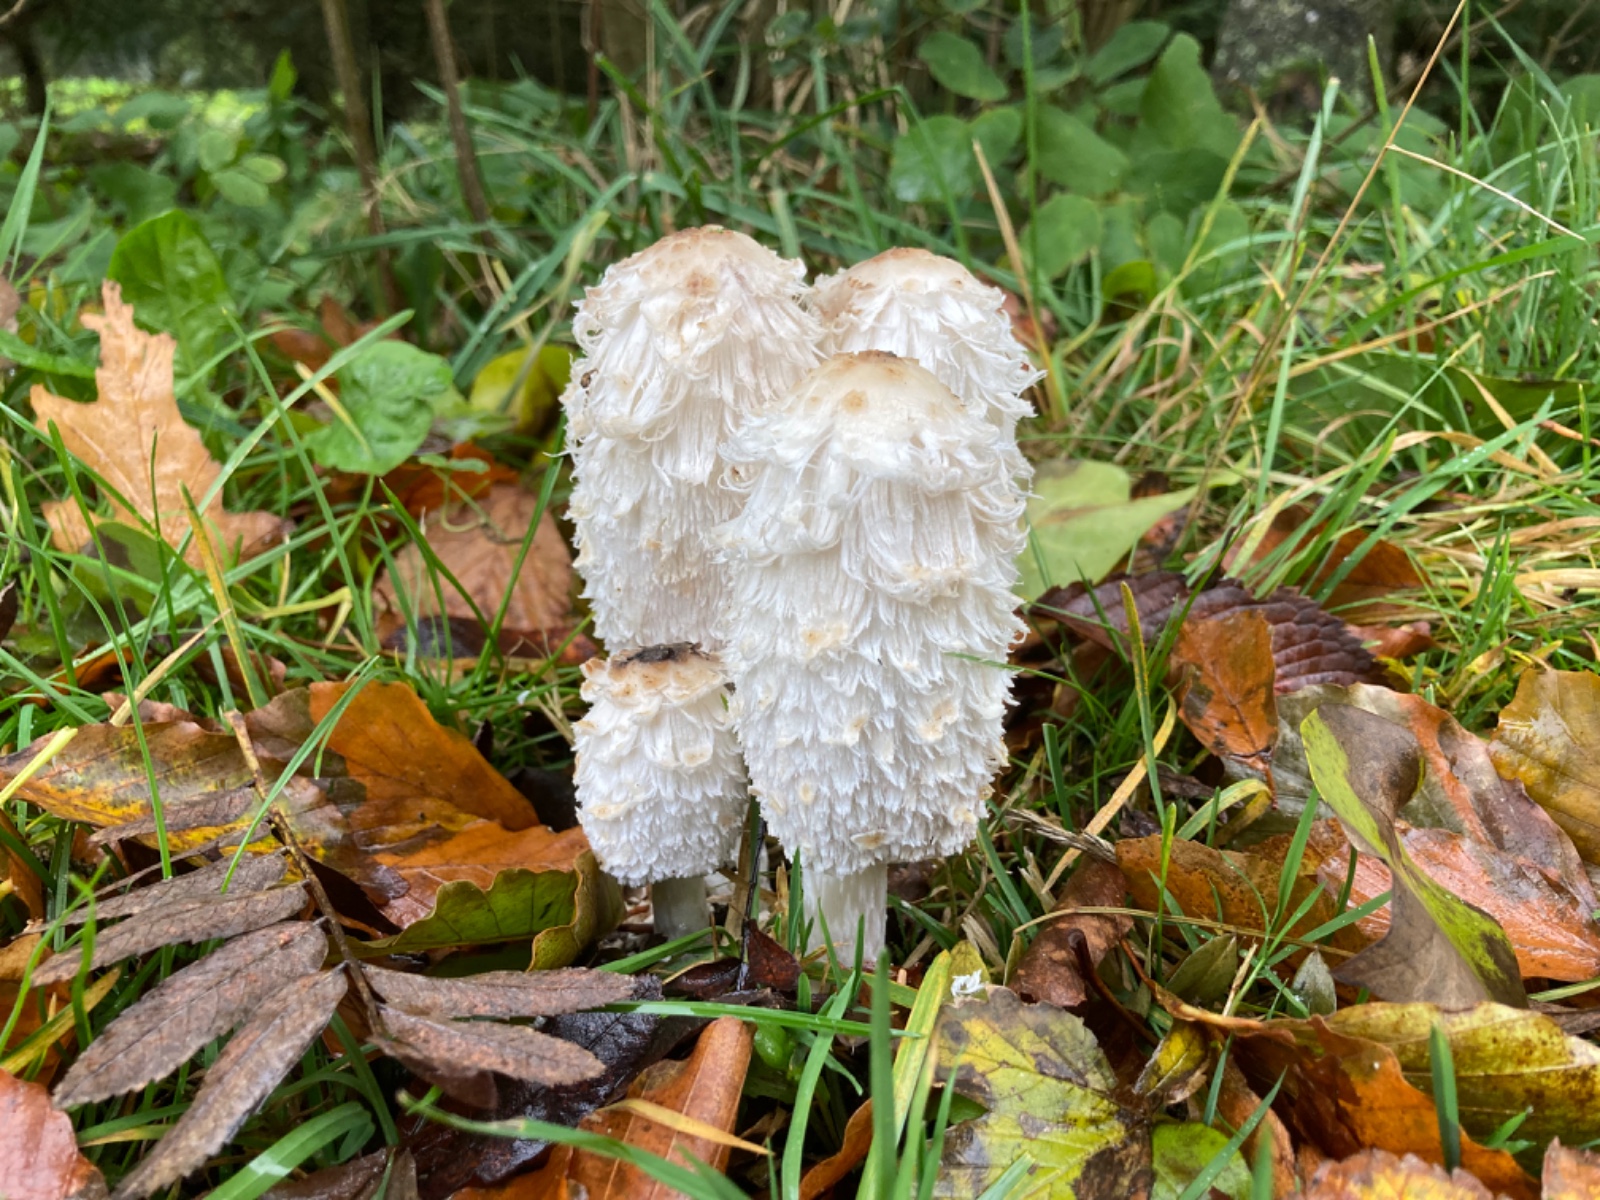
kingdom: Fungi
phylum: Basidiomycota
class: Agaricomycetes
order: Agaricales
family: Agaricaceae
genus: Coprinus
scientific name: Coprinus comatus
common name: stor parykhat
